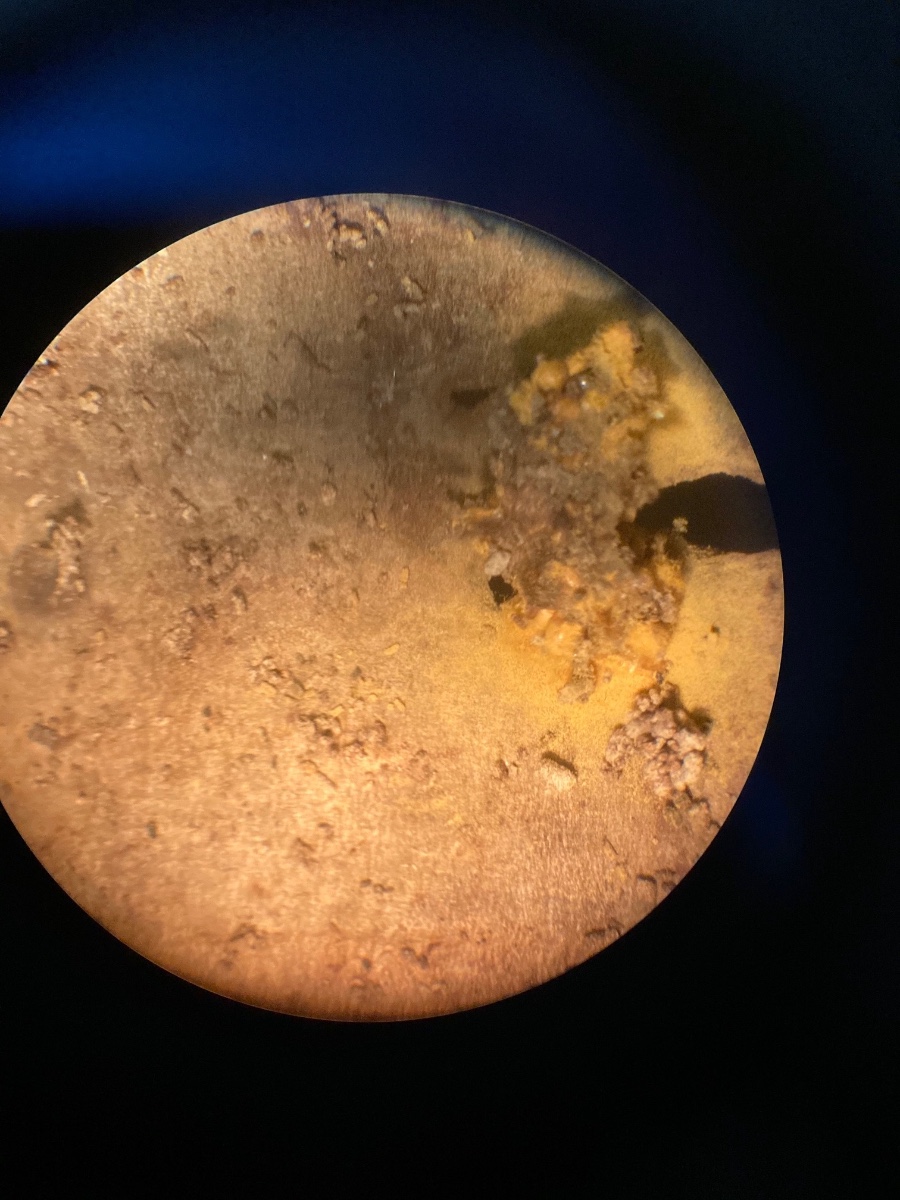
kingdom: Protozoa
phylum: Mycetozoa
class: Myxomycetes
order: Trichiales
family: Trichiaceae
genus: Trichia
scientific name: Trichia varia
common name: foranderlig hårbold
